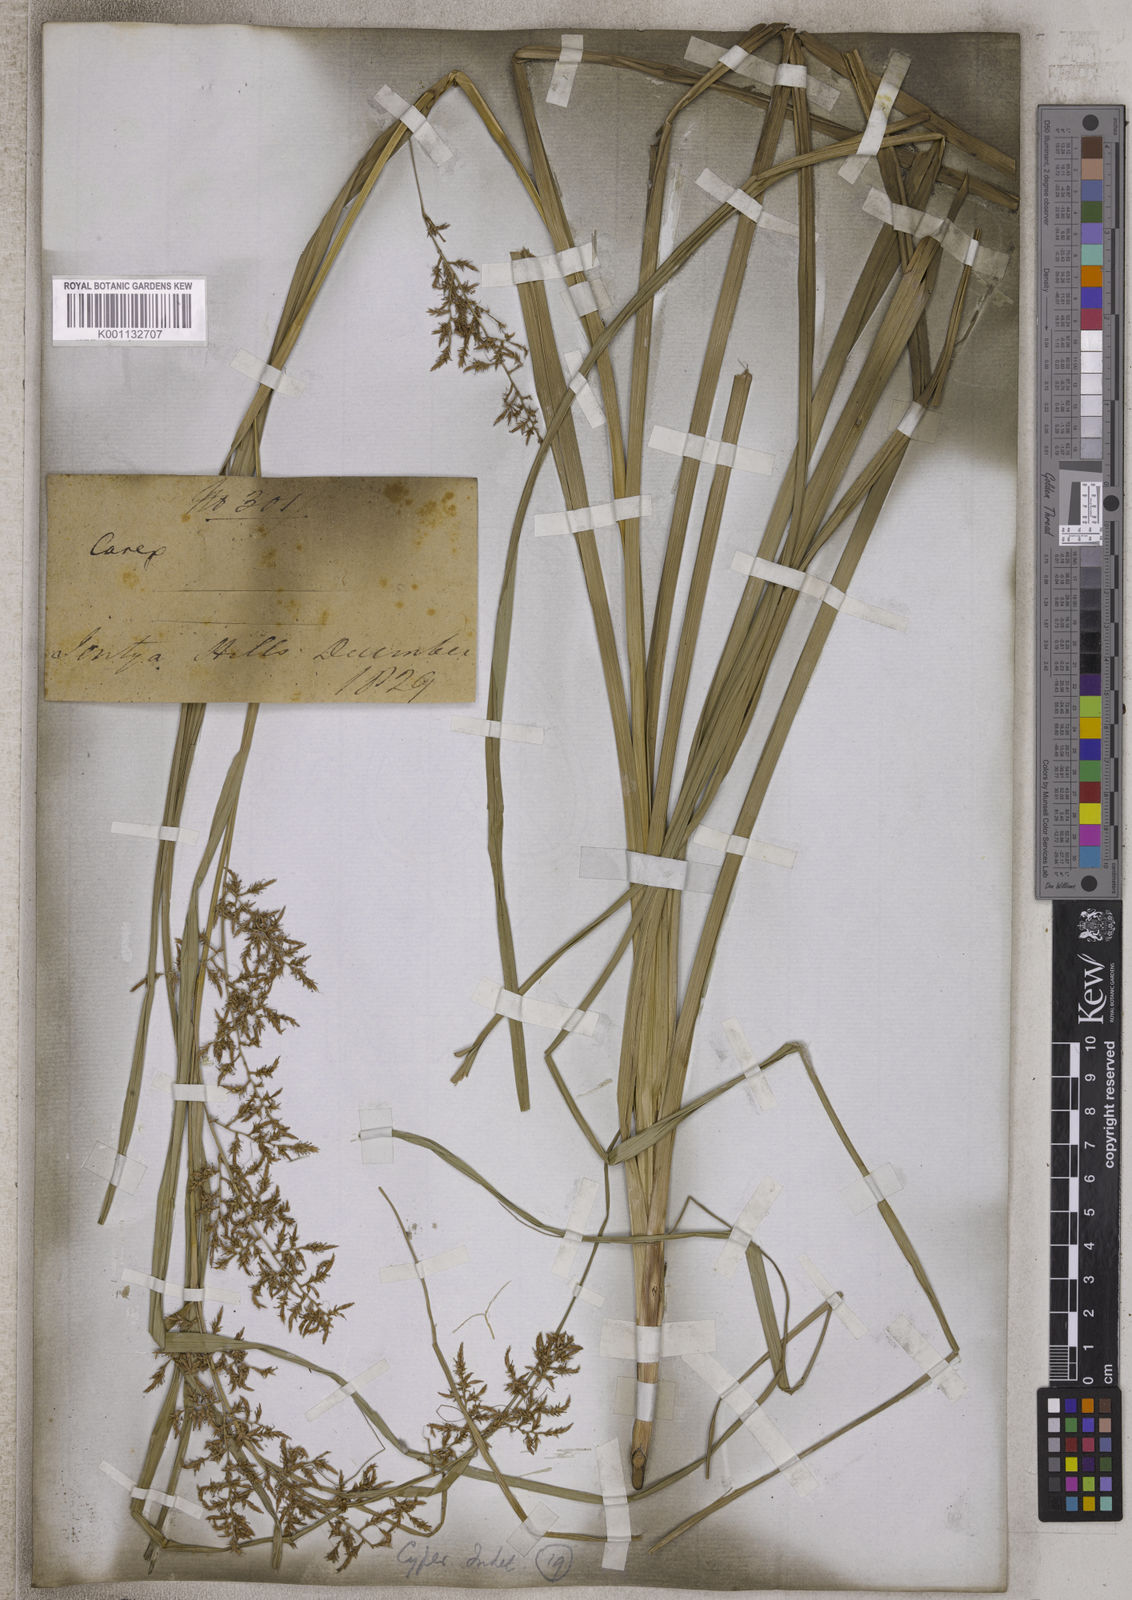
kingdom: Plantae
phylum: Tracheophyta
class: Liliopsida
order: Poales
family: Cyperaceae
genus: Carex
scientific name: Carex
